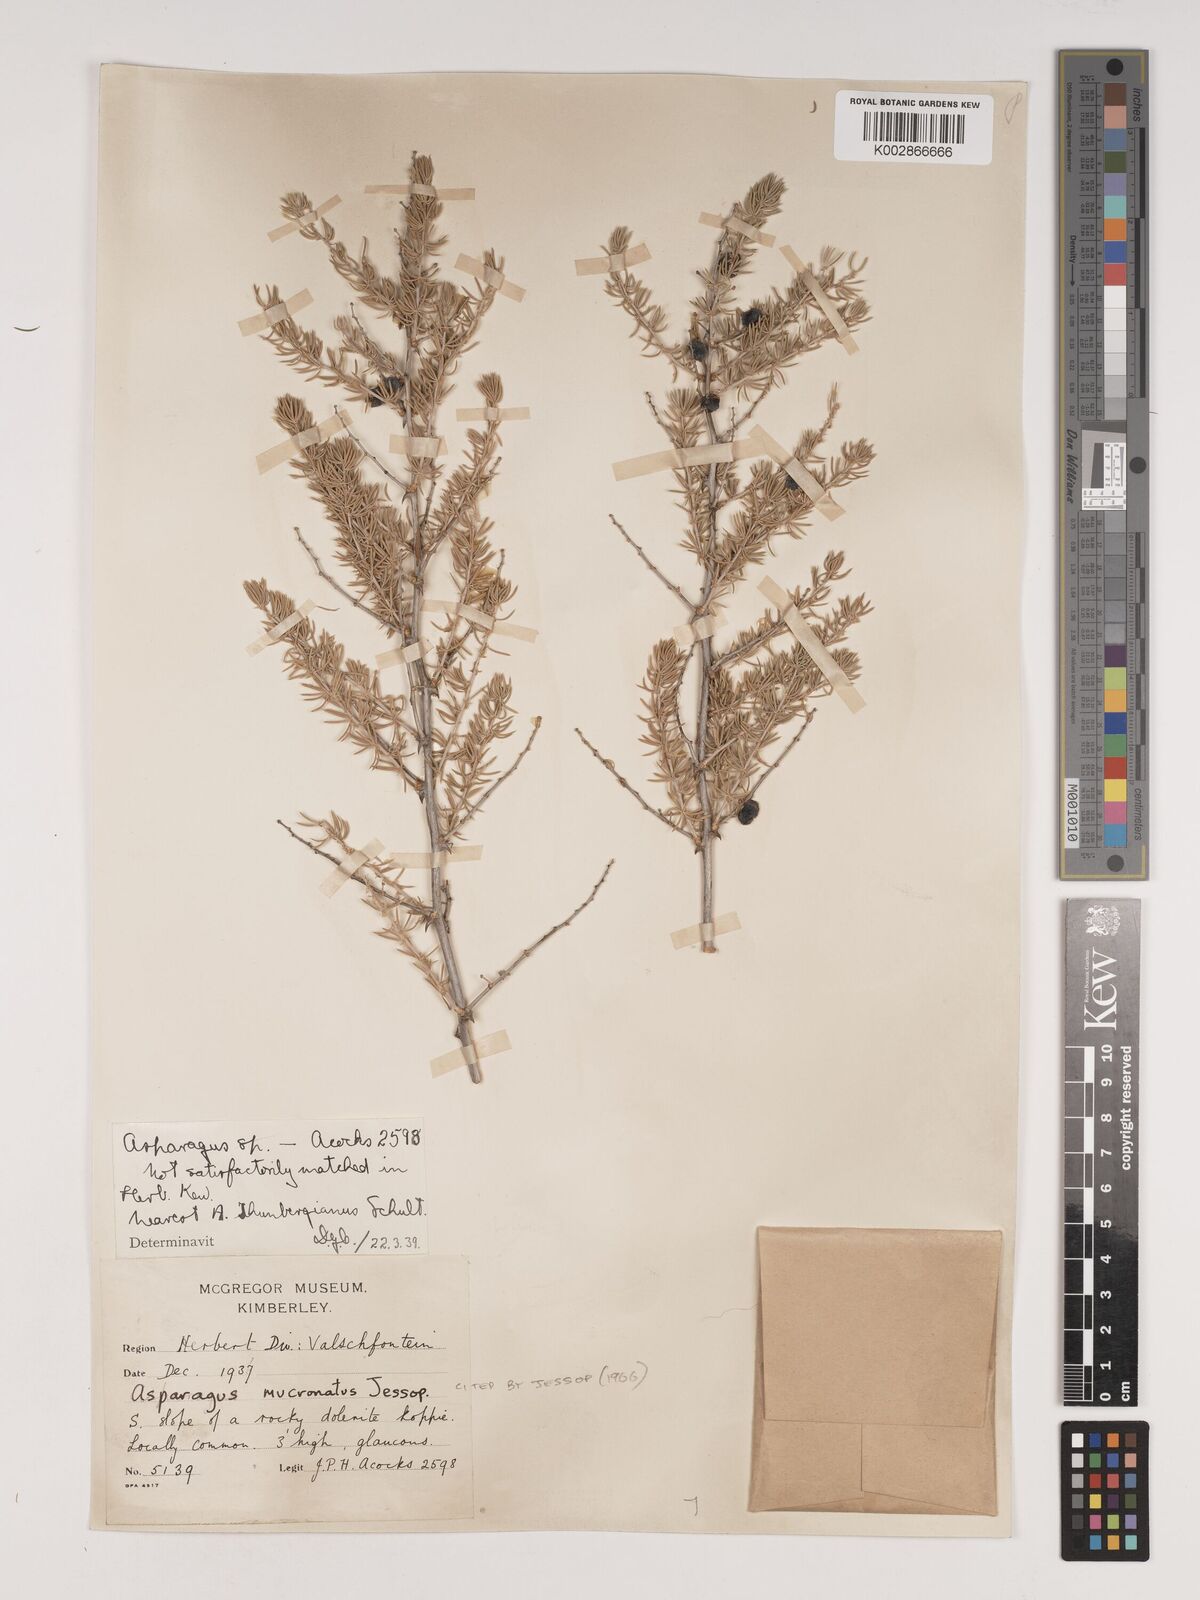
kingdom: Plantae
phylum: Tracheophyta
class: Liliopsida
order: Asparagales
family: Asparagaceae
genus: Asparagus
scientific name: Asparagus mucronatus
